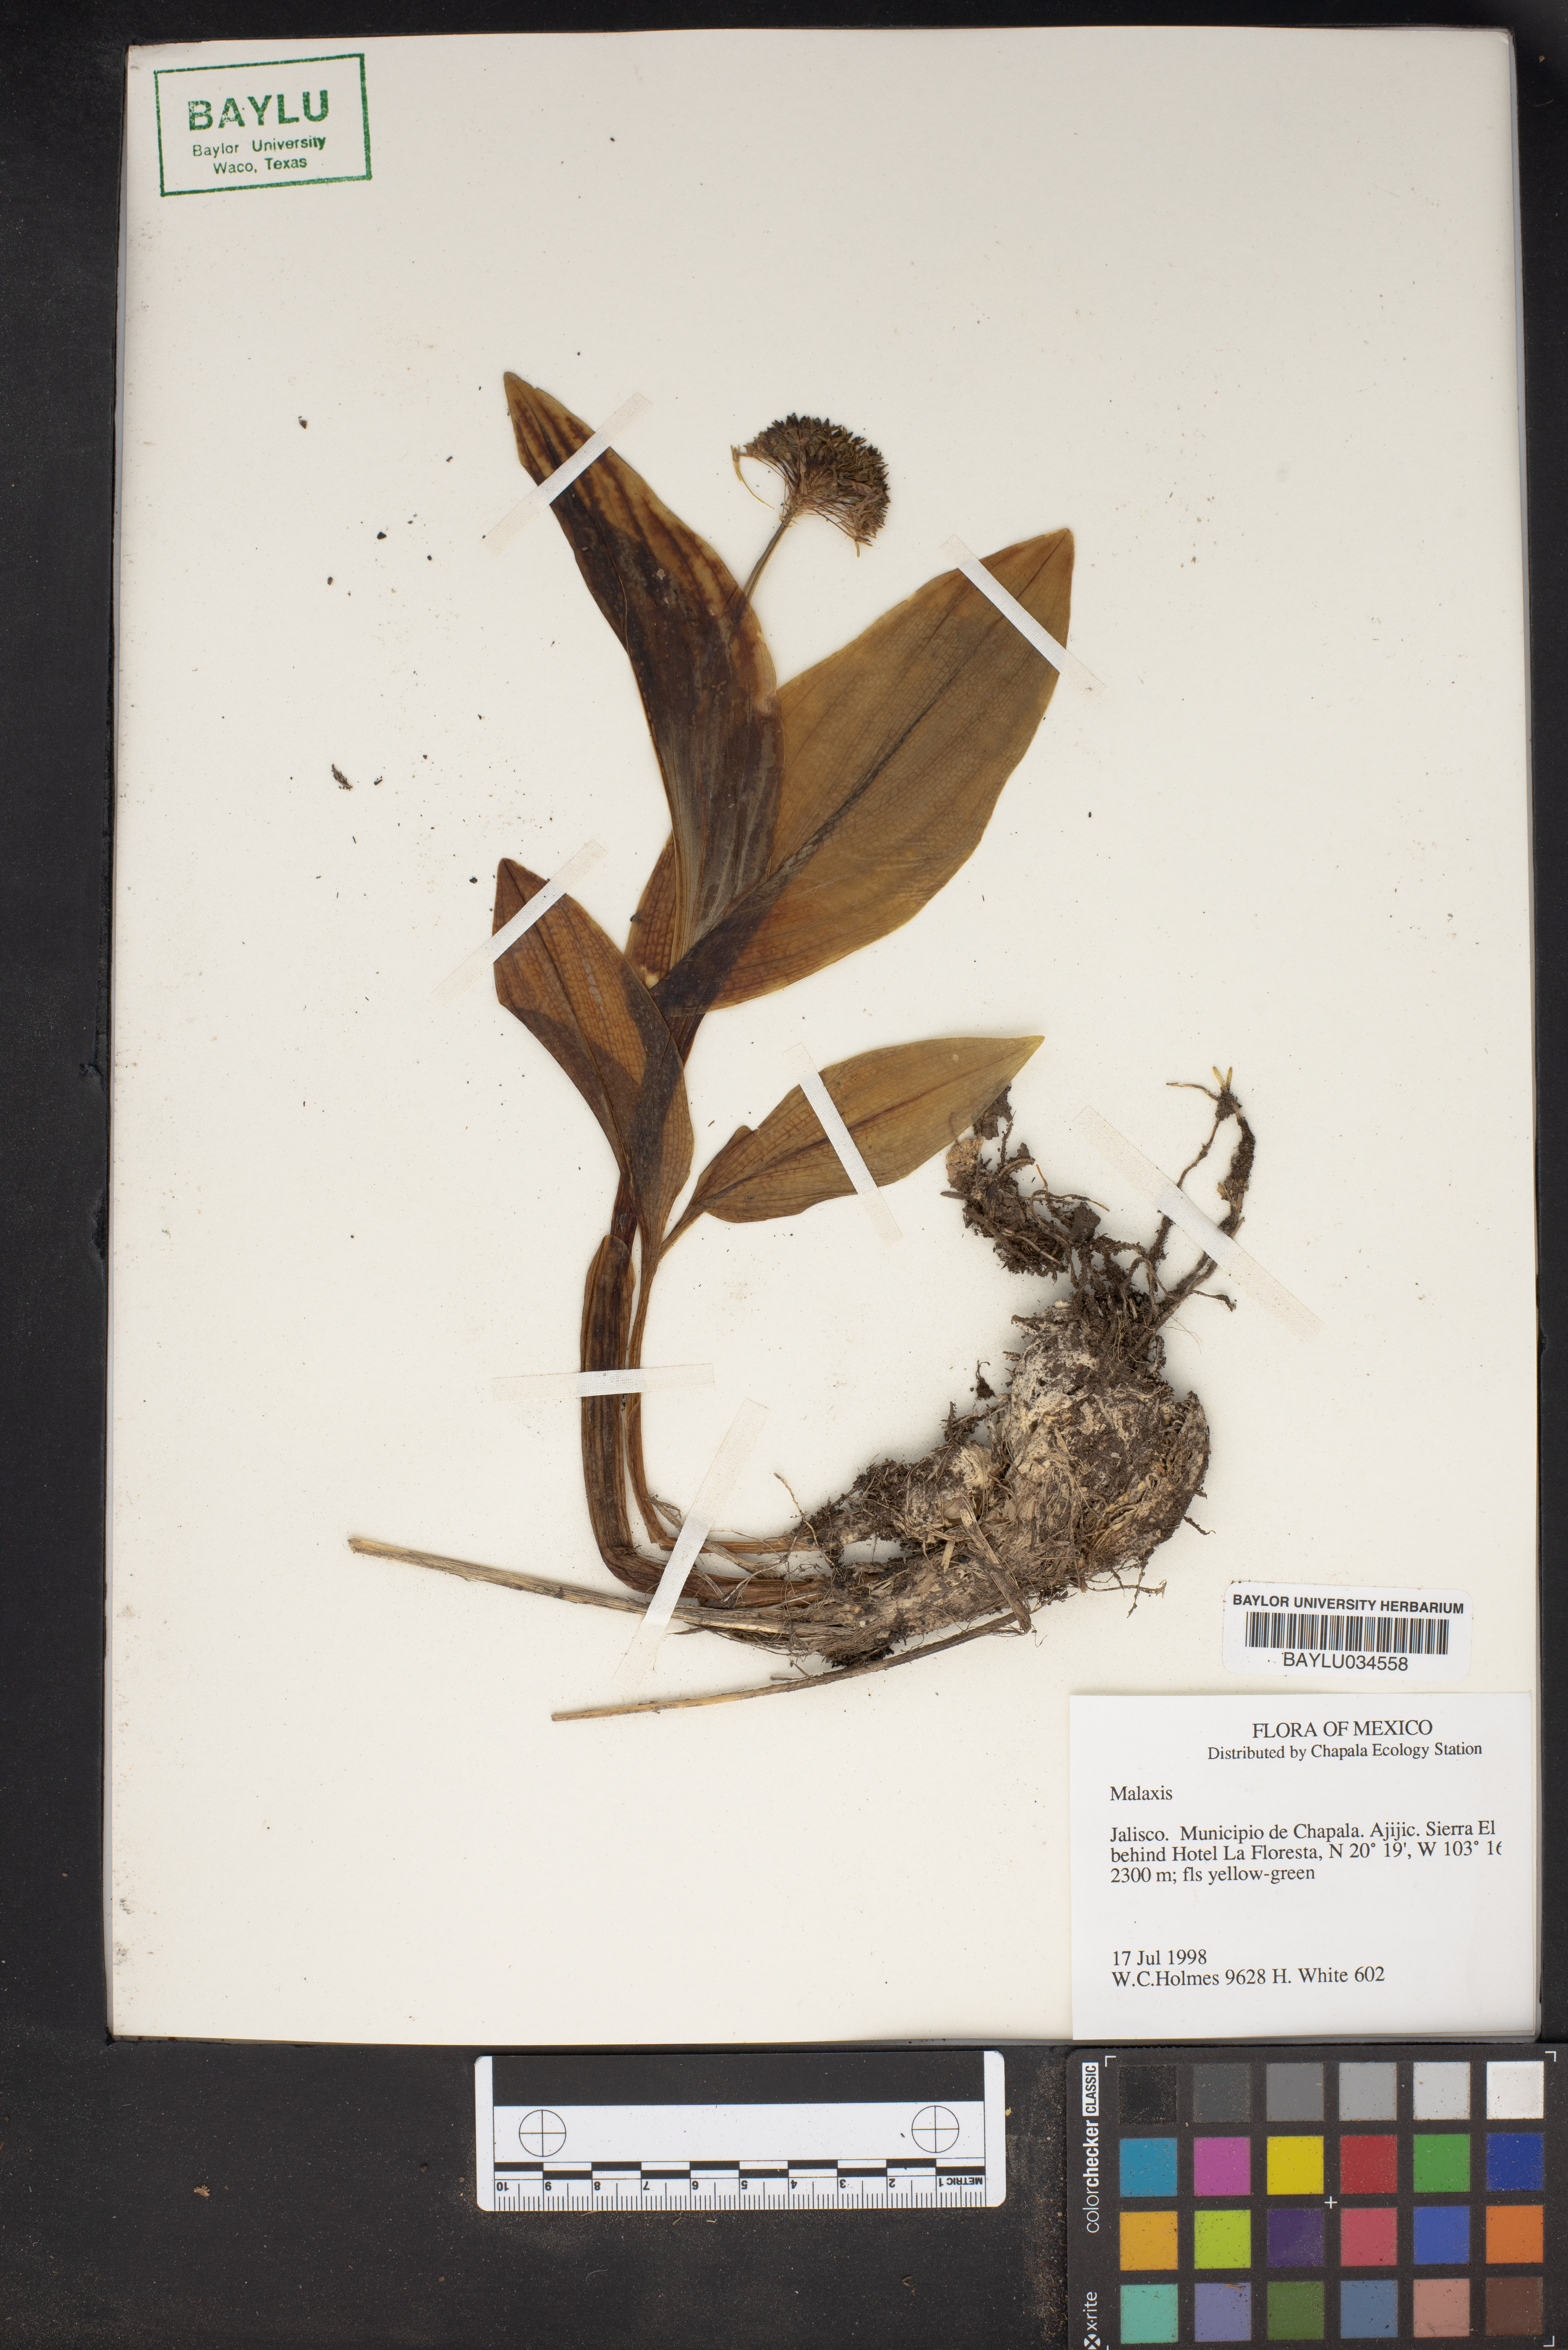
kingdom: Plantae
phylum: Tracheophyta
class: Liliopsida
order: Asparagales
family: Orchidaceae
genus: Malaxis
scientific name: Malaxis
